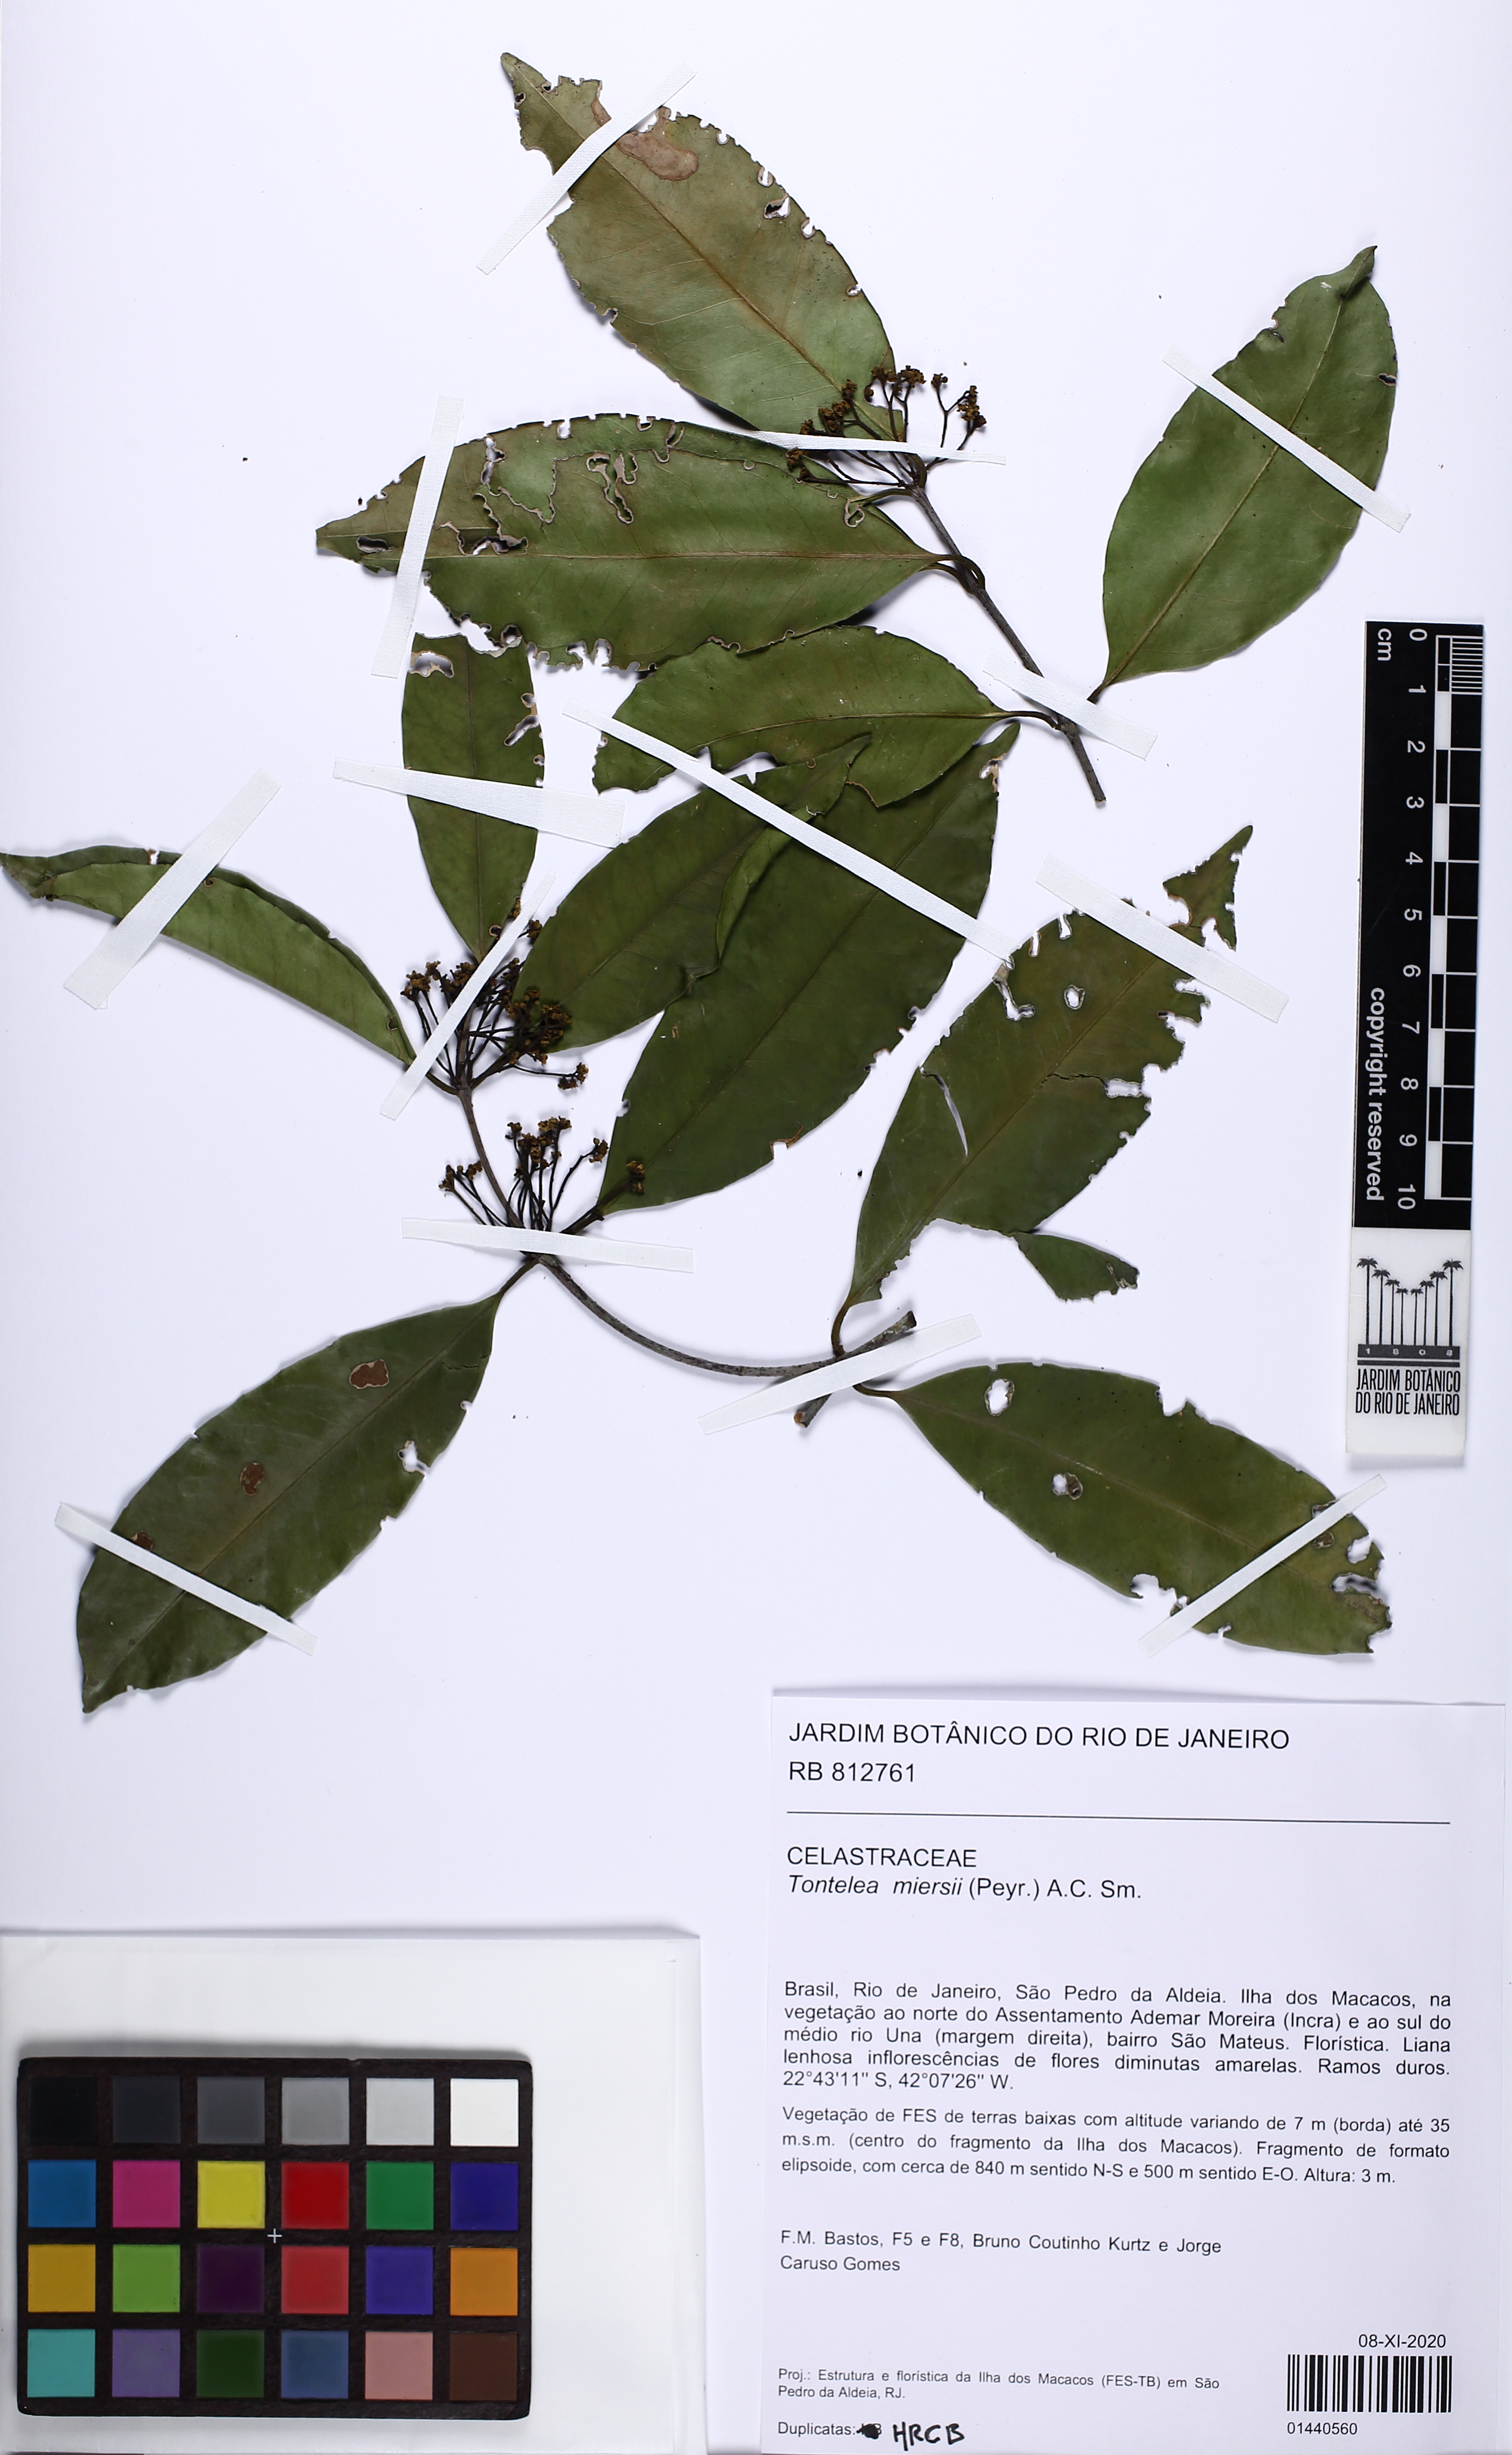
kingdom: Plantae
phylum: Tracheophyta
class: Magnoliopsida
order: Celastrales
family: Celastraceae
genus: Tontelea
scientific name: Tontelea miersii
